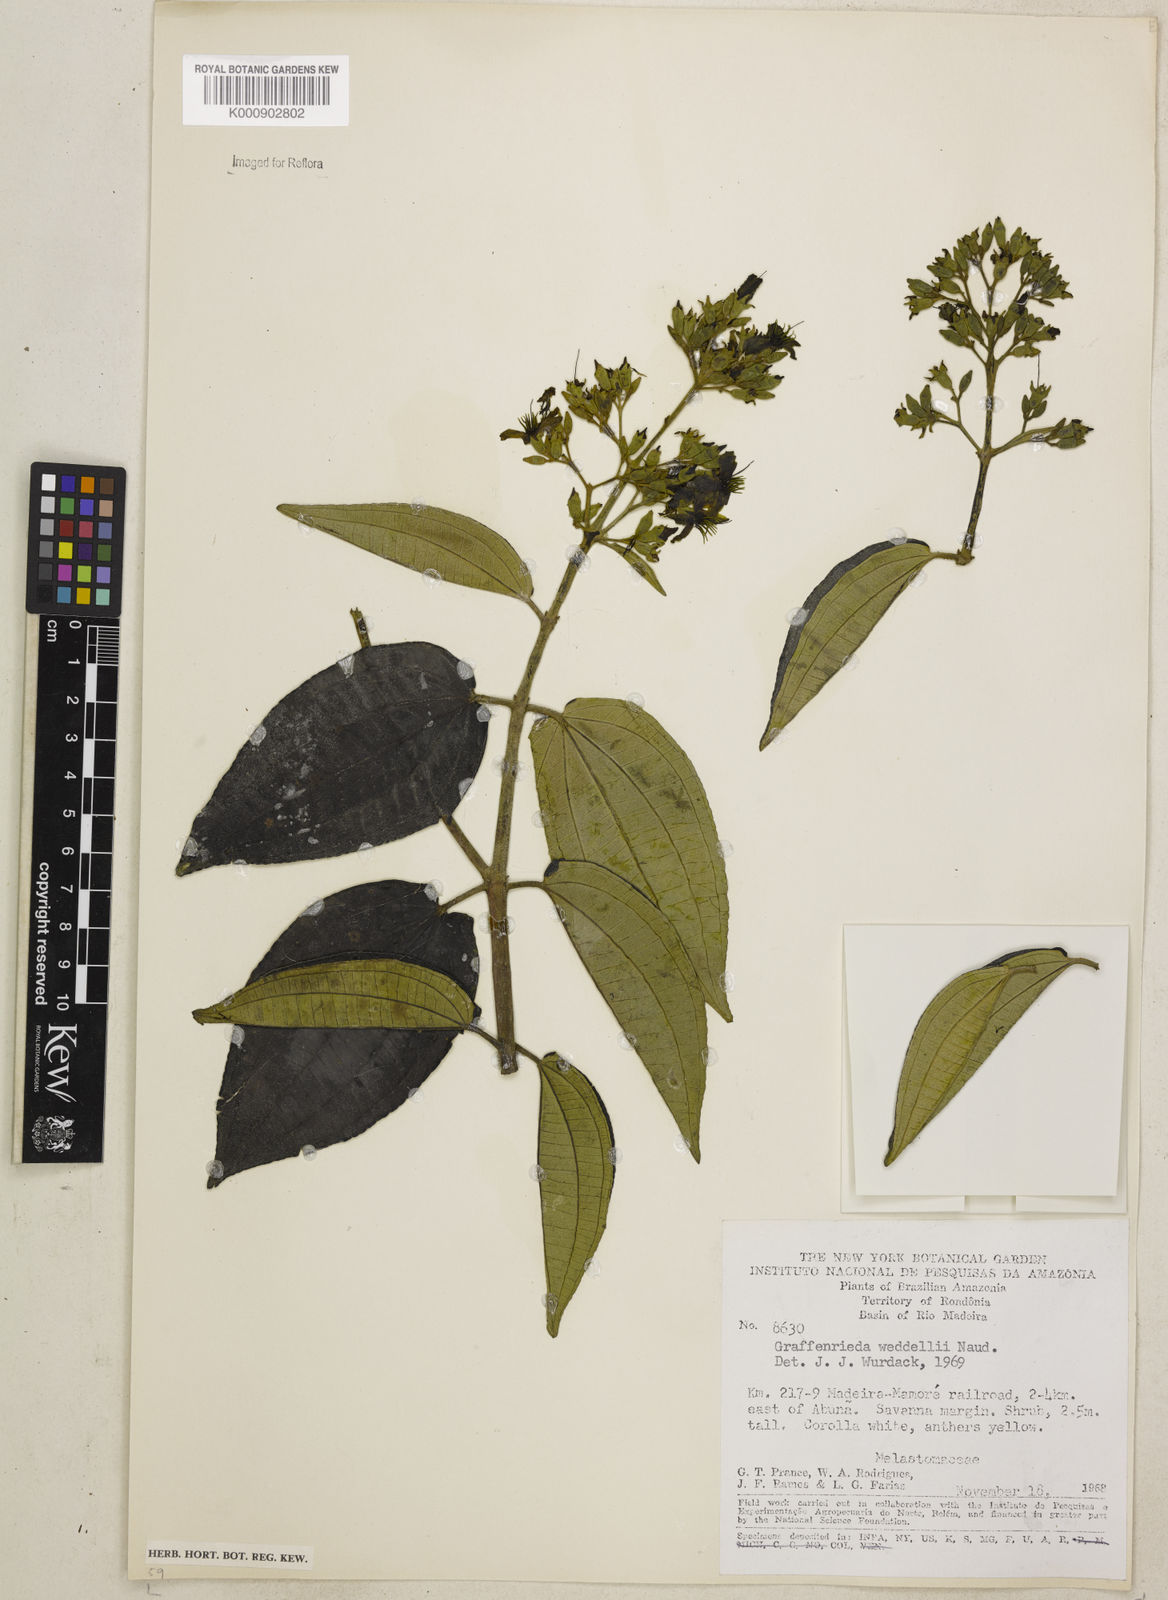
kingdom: Plantae
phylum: Tracheophyta
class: Magnoliopsida
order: Myrtales
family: Melastomataceae
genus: Graffenrieda
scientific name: Graffenrieda weddellii
